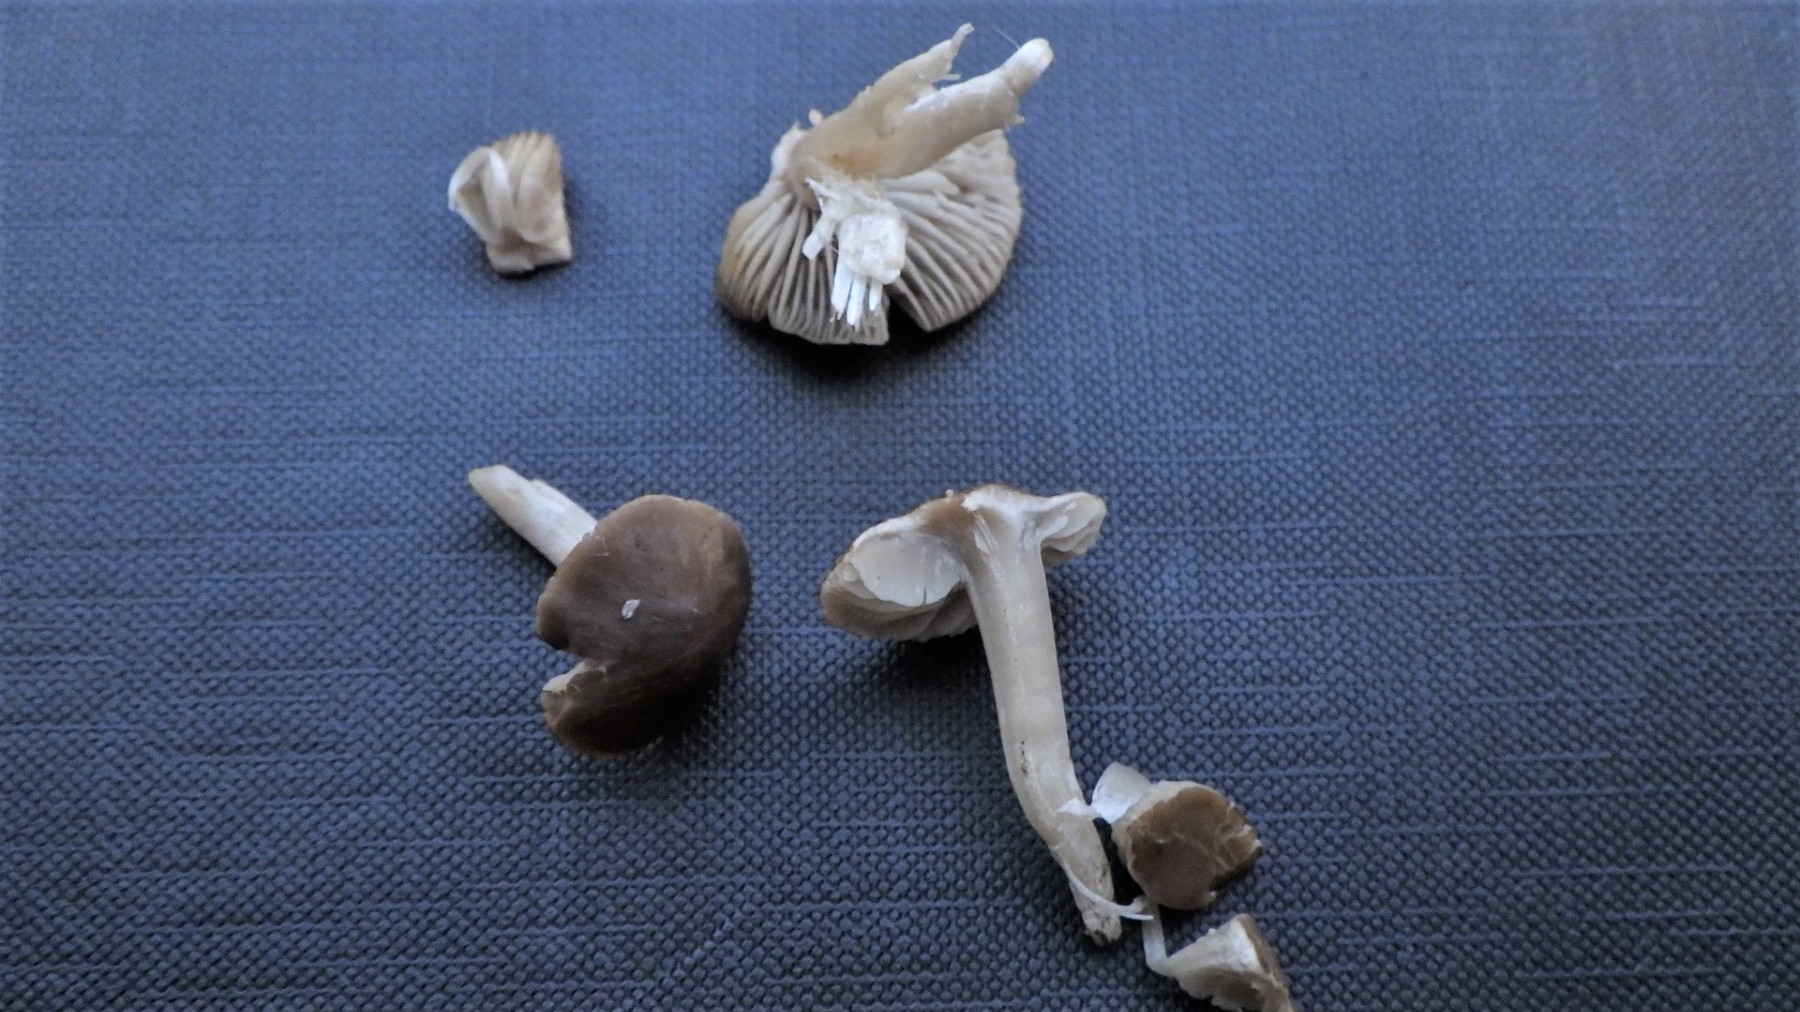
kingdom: Fungi
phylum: Basidiomycota
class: Agaricomycetes
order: Agaricales
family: Tricholomataceae
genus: Dermoloma
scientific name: Dermoloma cuneifolium
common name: eng-nonnehat
